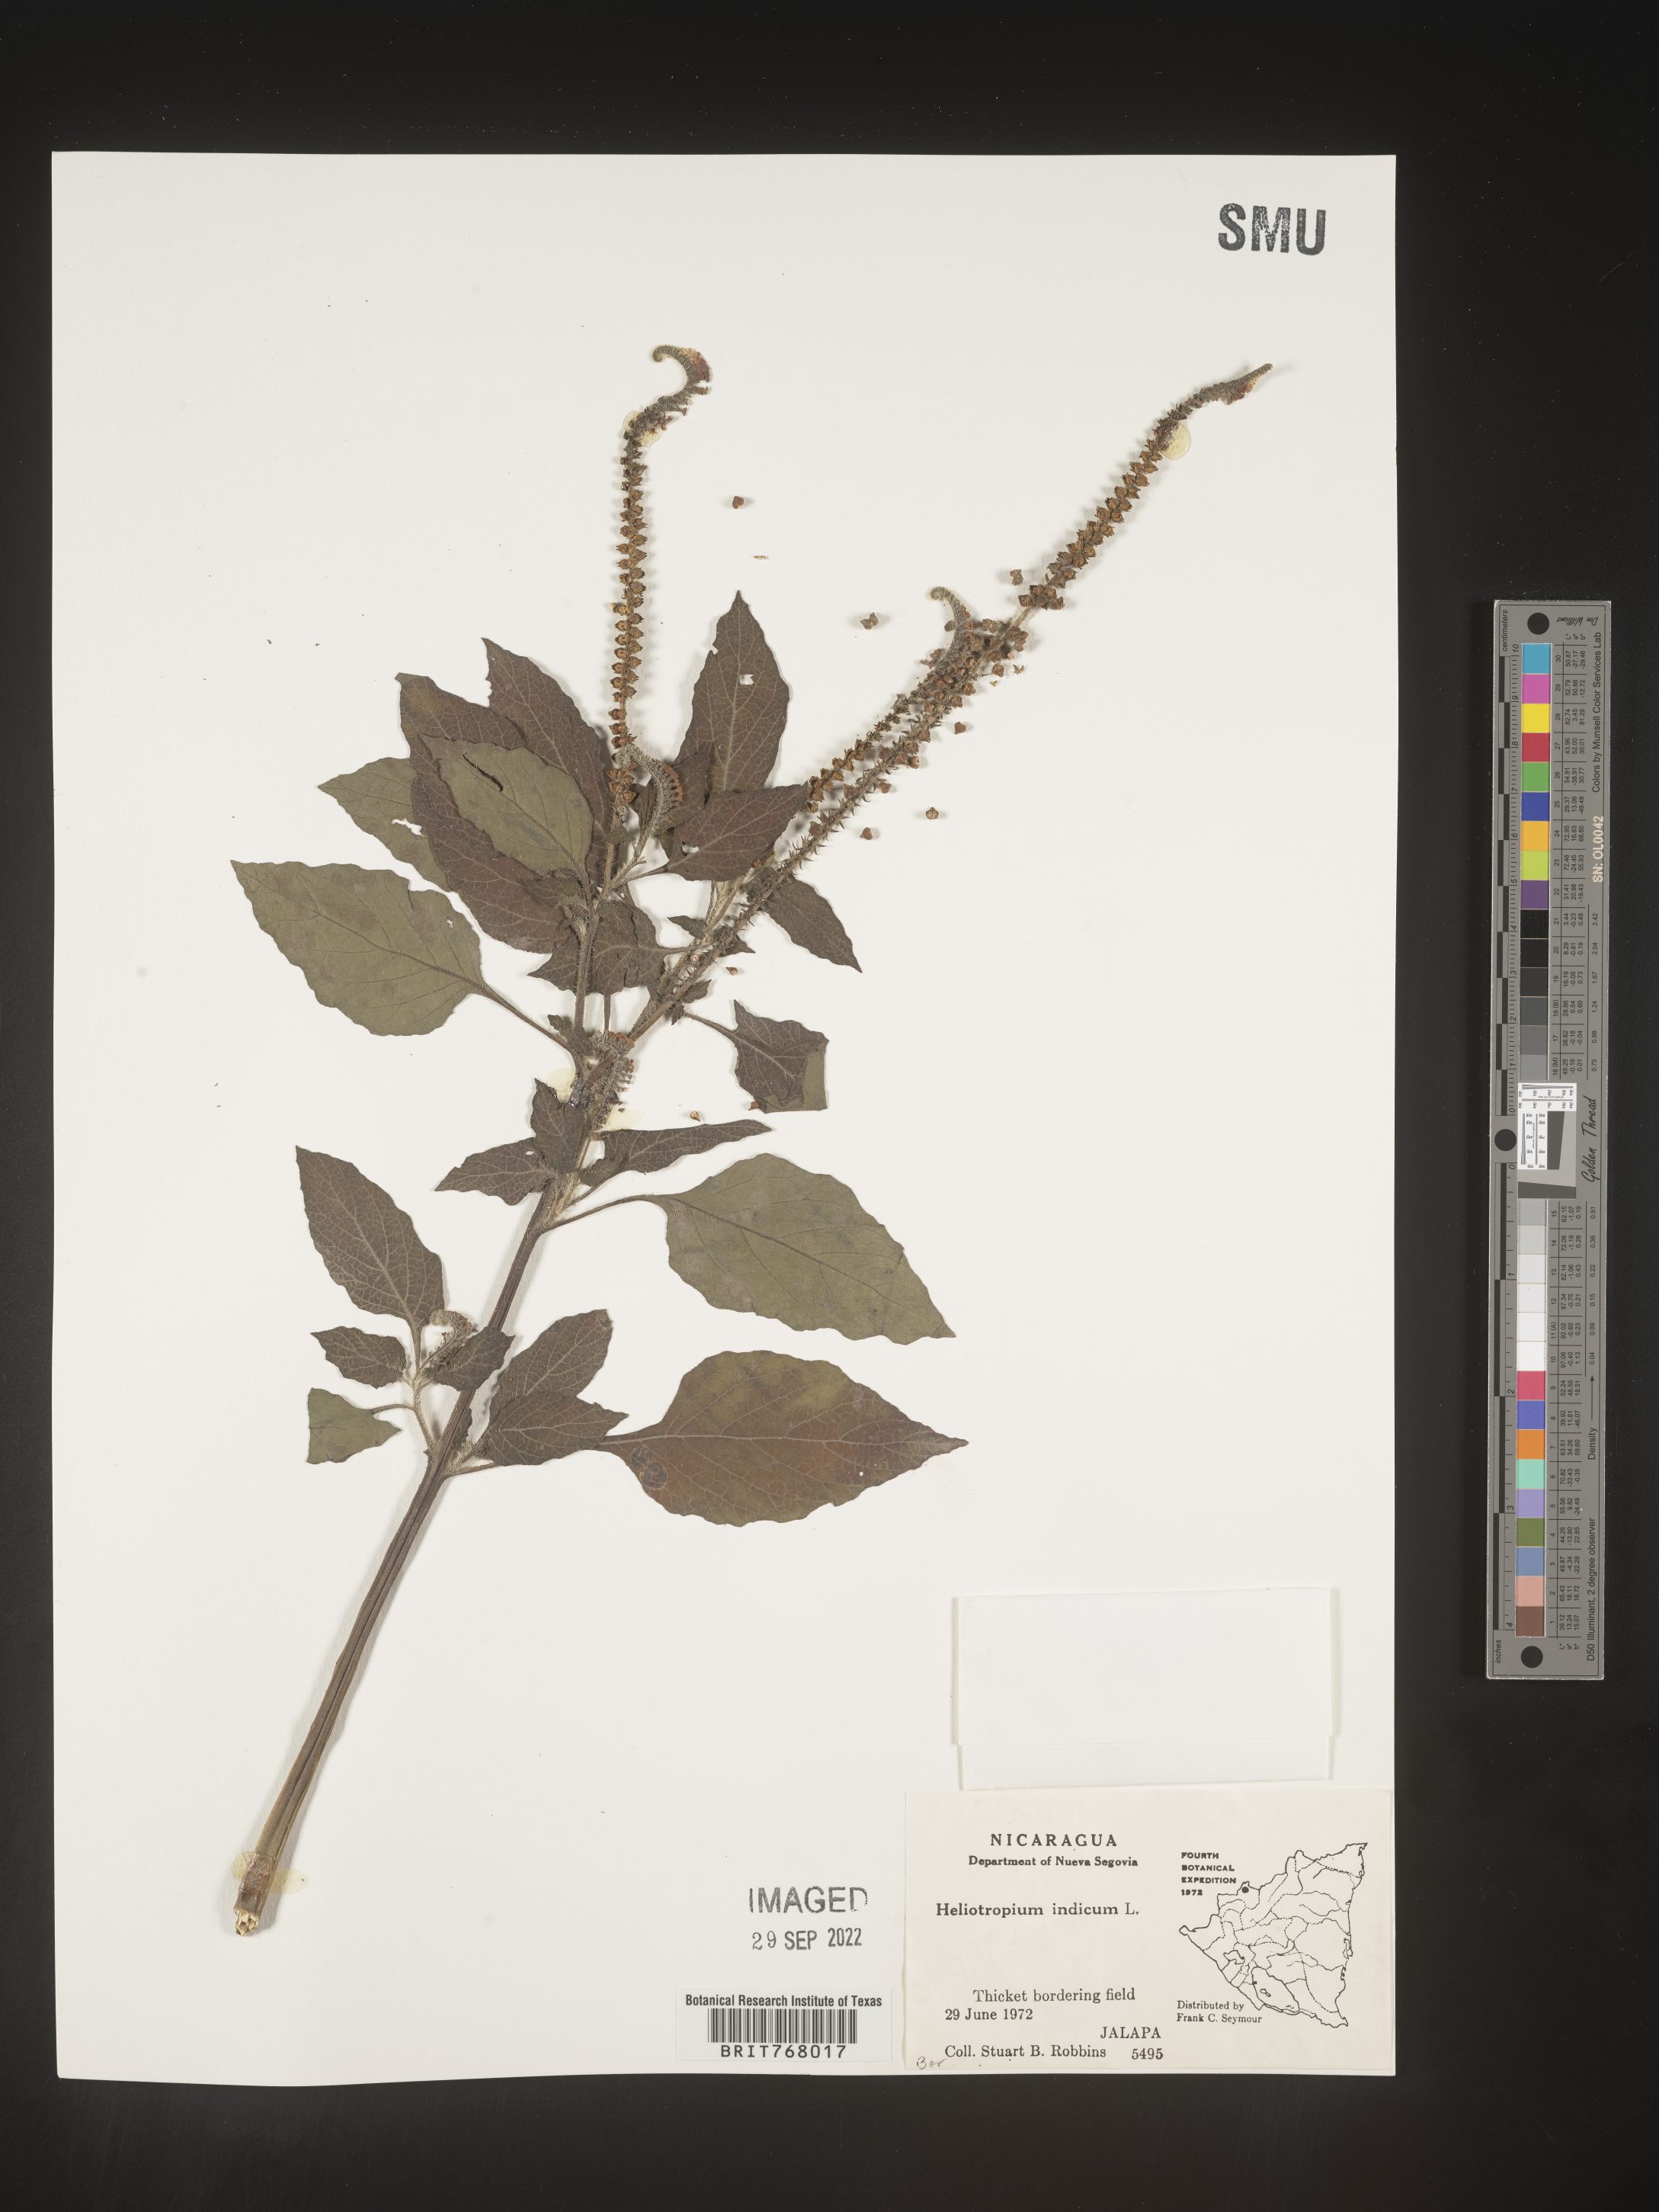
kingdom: Plantae
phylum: Tracheophyta
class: Magnoliopsida
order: Boraginales
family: Heliotropiaceae
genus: Heliotropium
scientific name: Heliotropium
